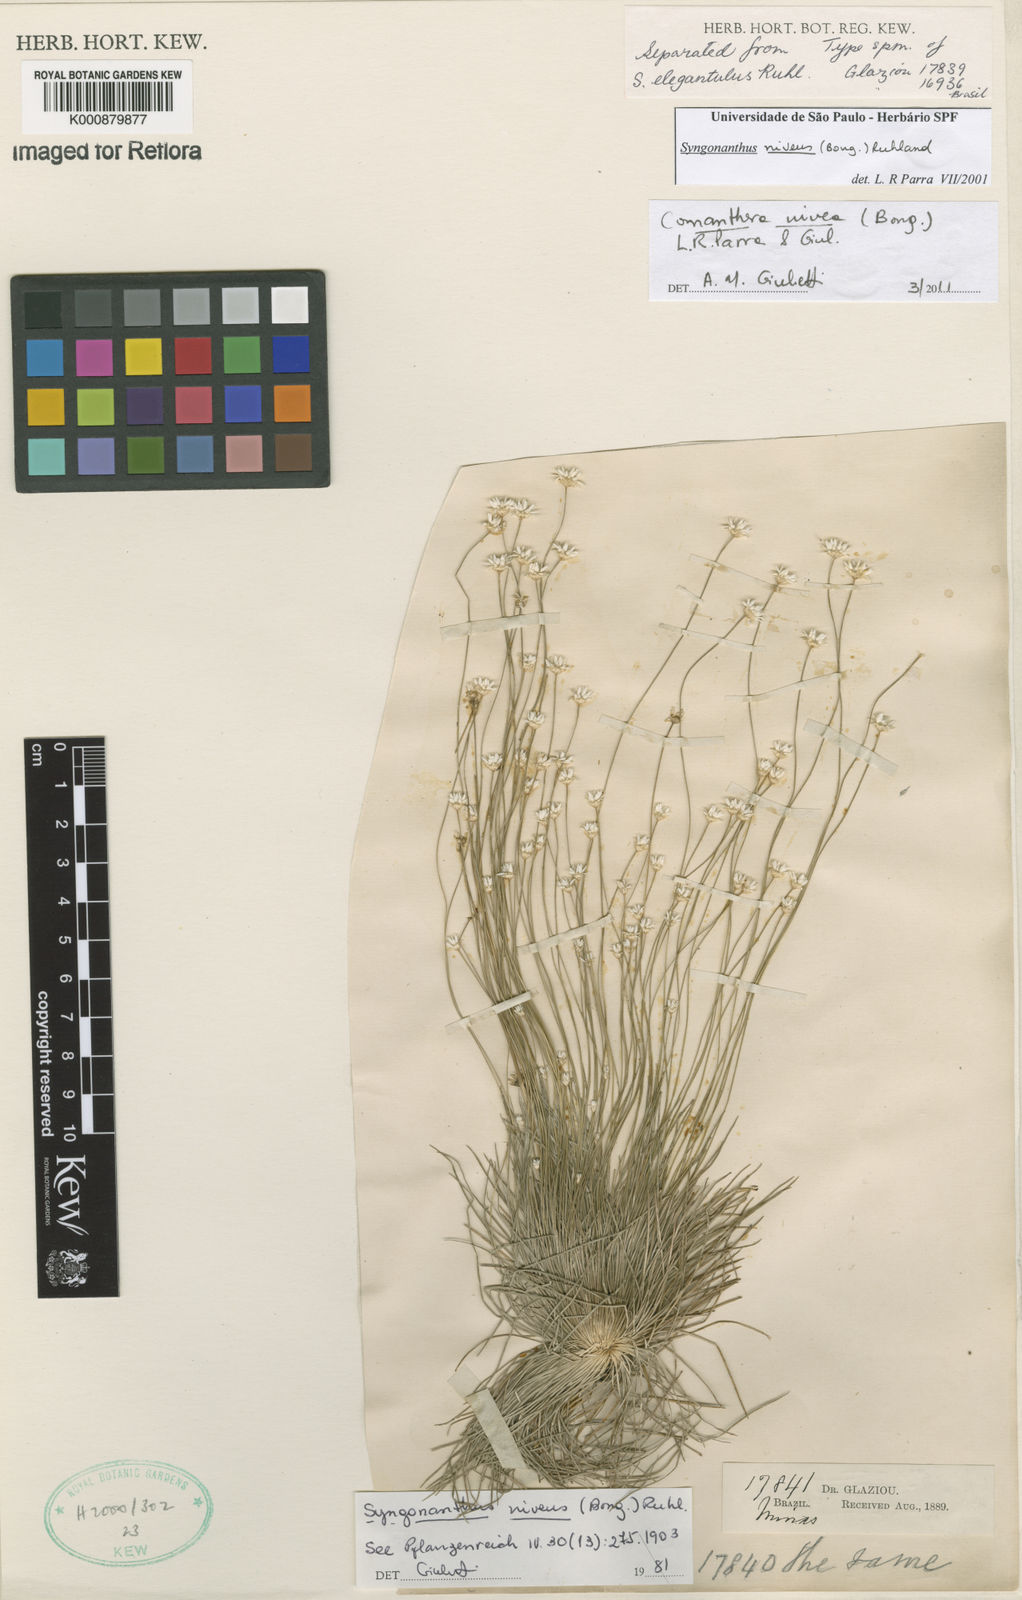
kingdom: Plantae
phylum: Tracheophyta
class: Liliopsida
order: Poales
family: Eriocaulaceae
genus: Comanthera
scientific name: Comanthera nivea
